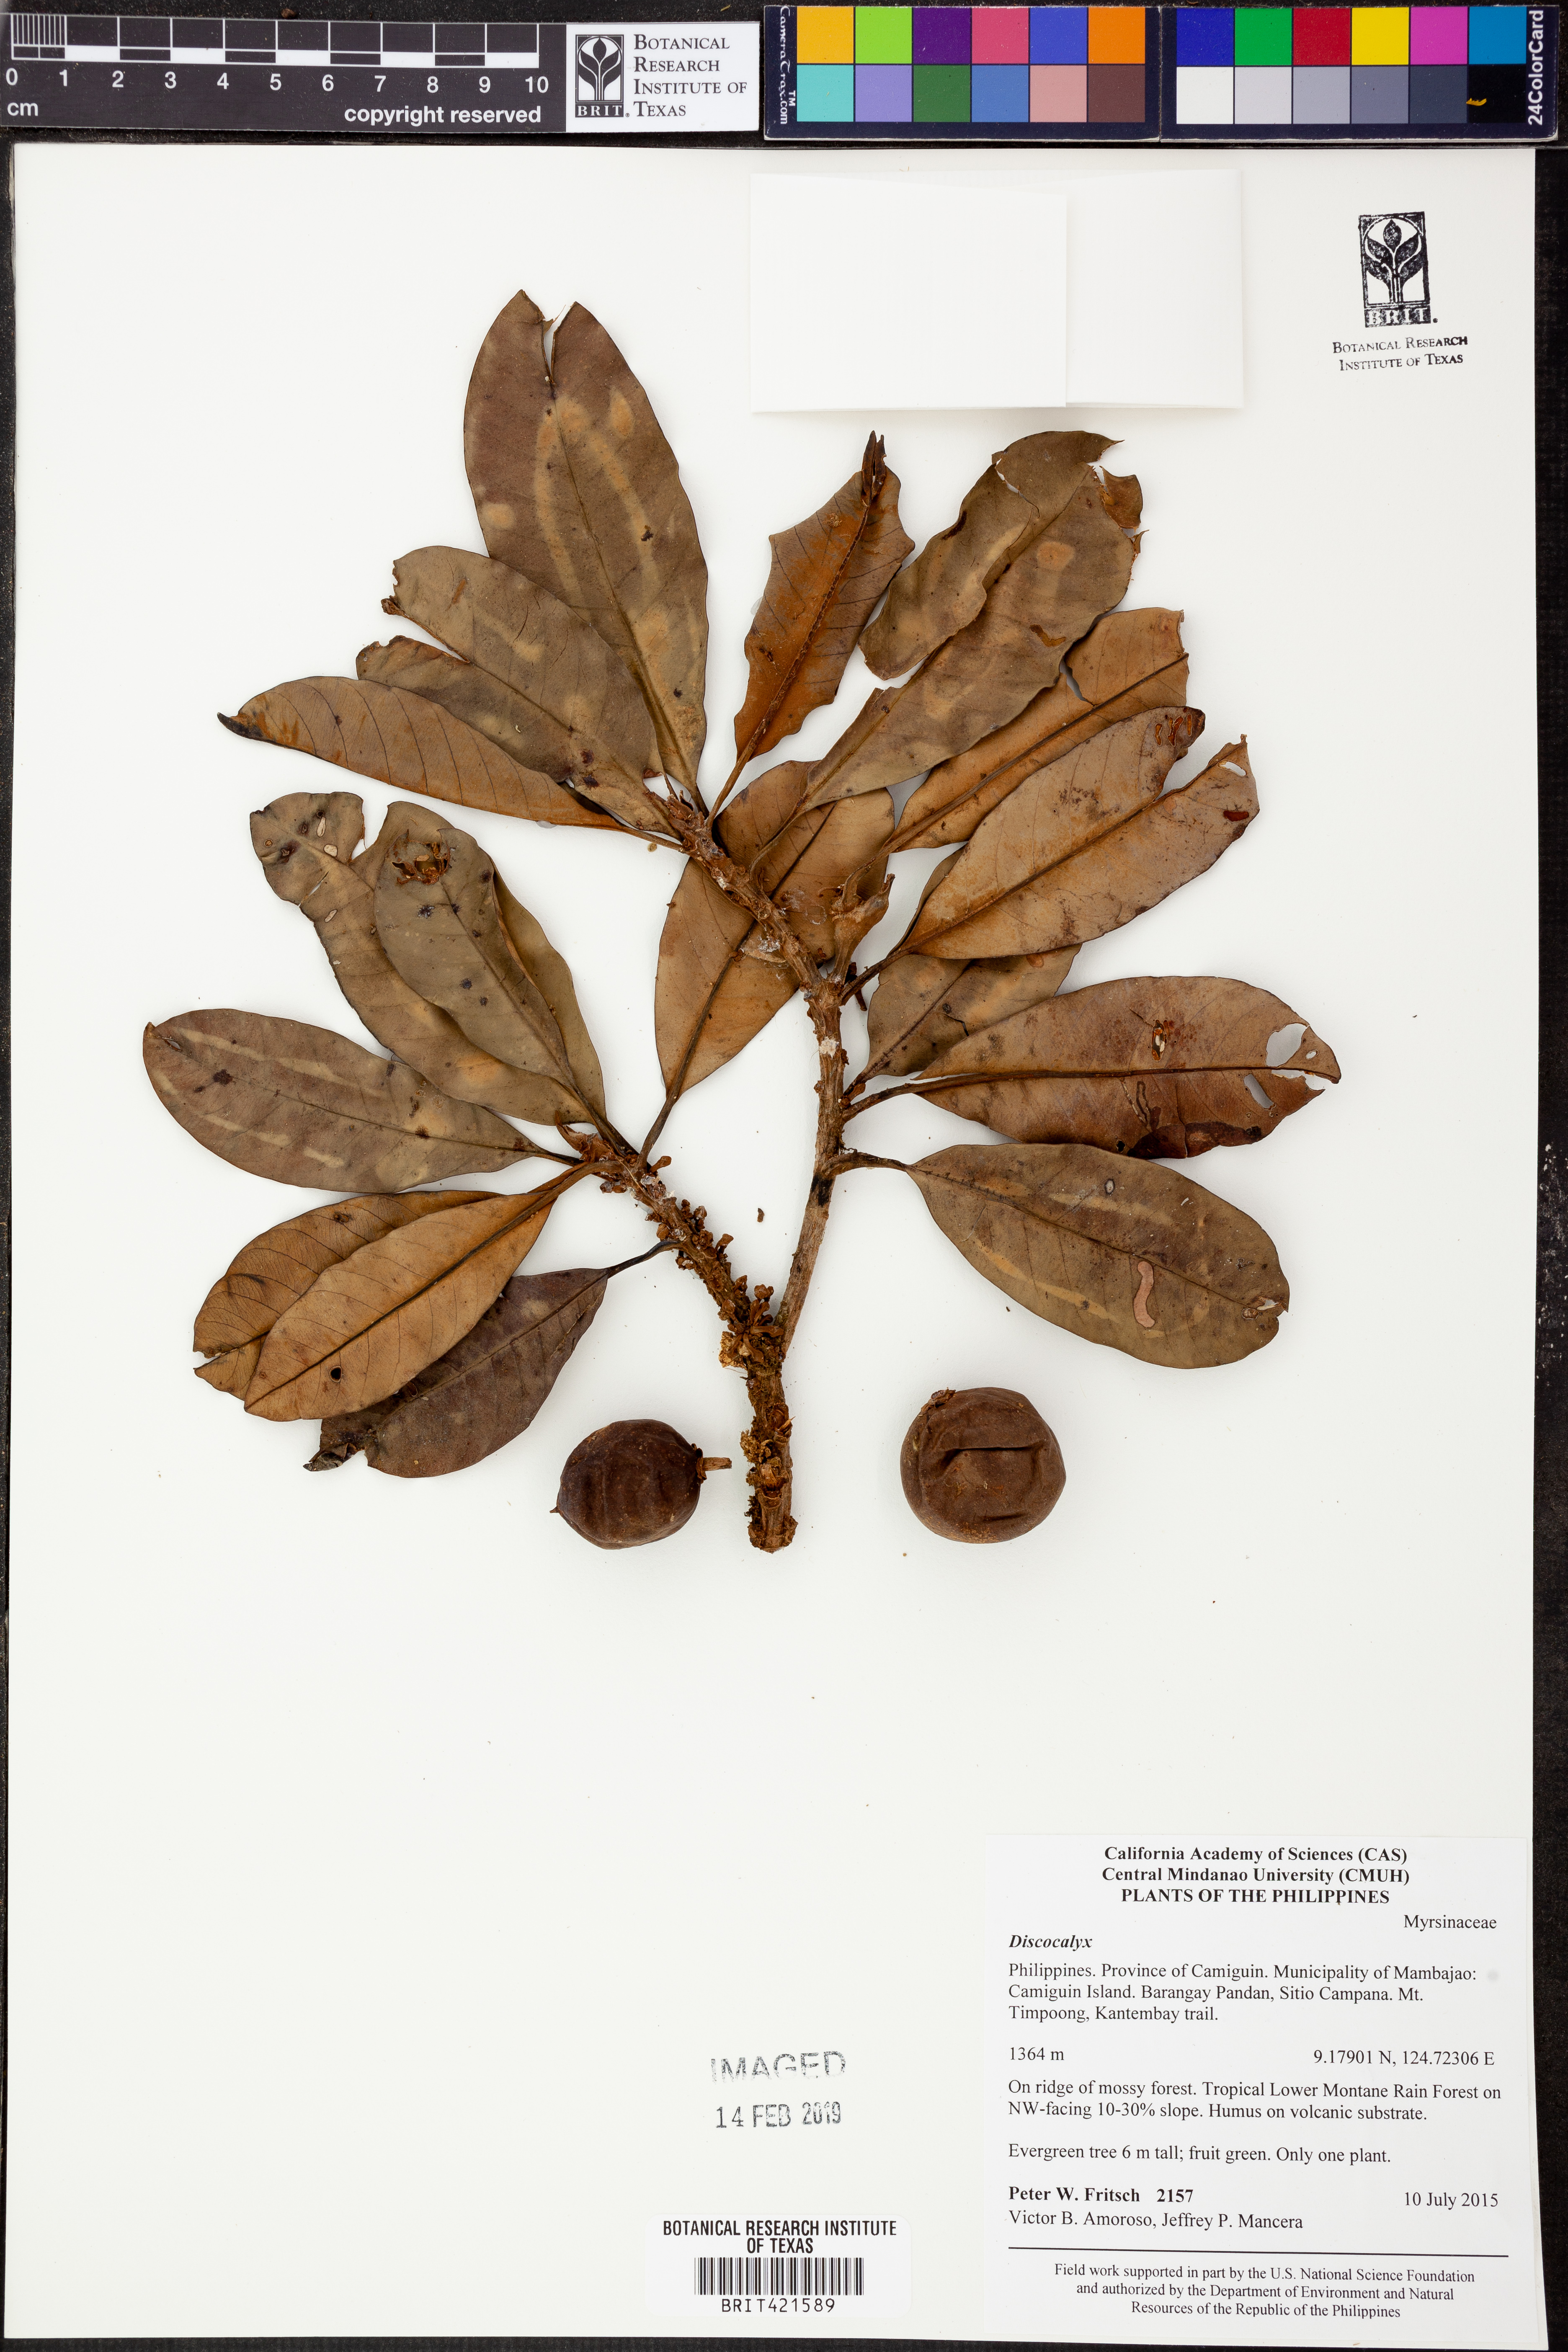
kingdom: Plantae
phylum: Tracheophyta
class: Magnoliopsida
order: Ericales
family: Primulaceae
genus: Discocalyx
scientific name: Discocalyx
